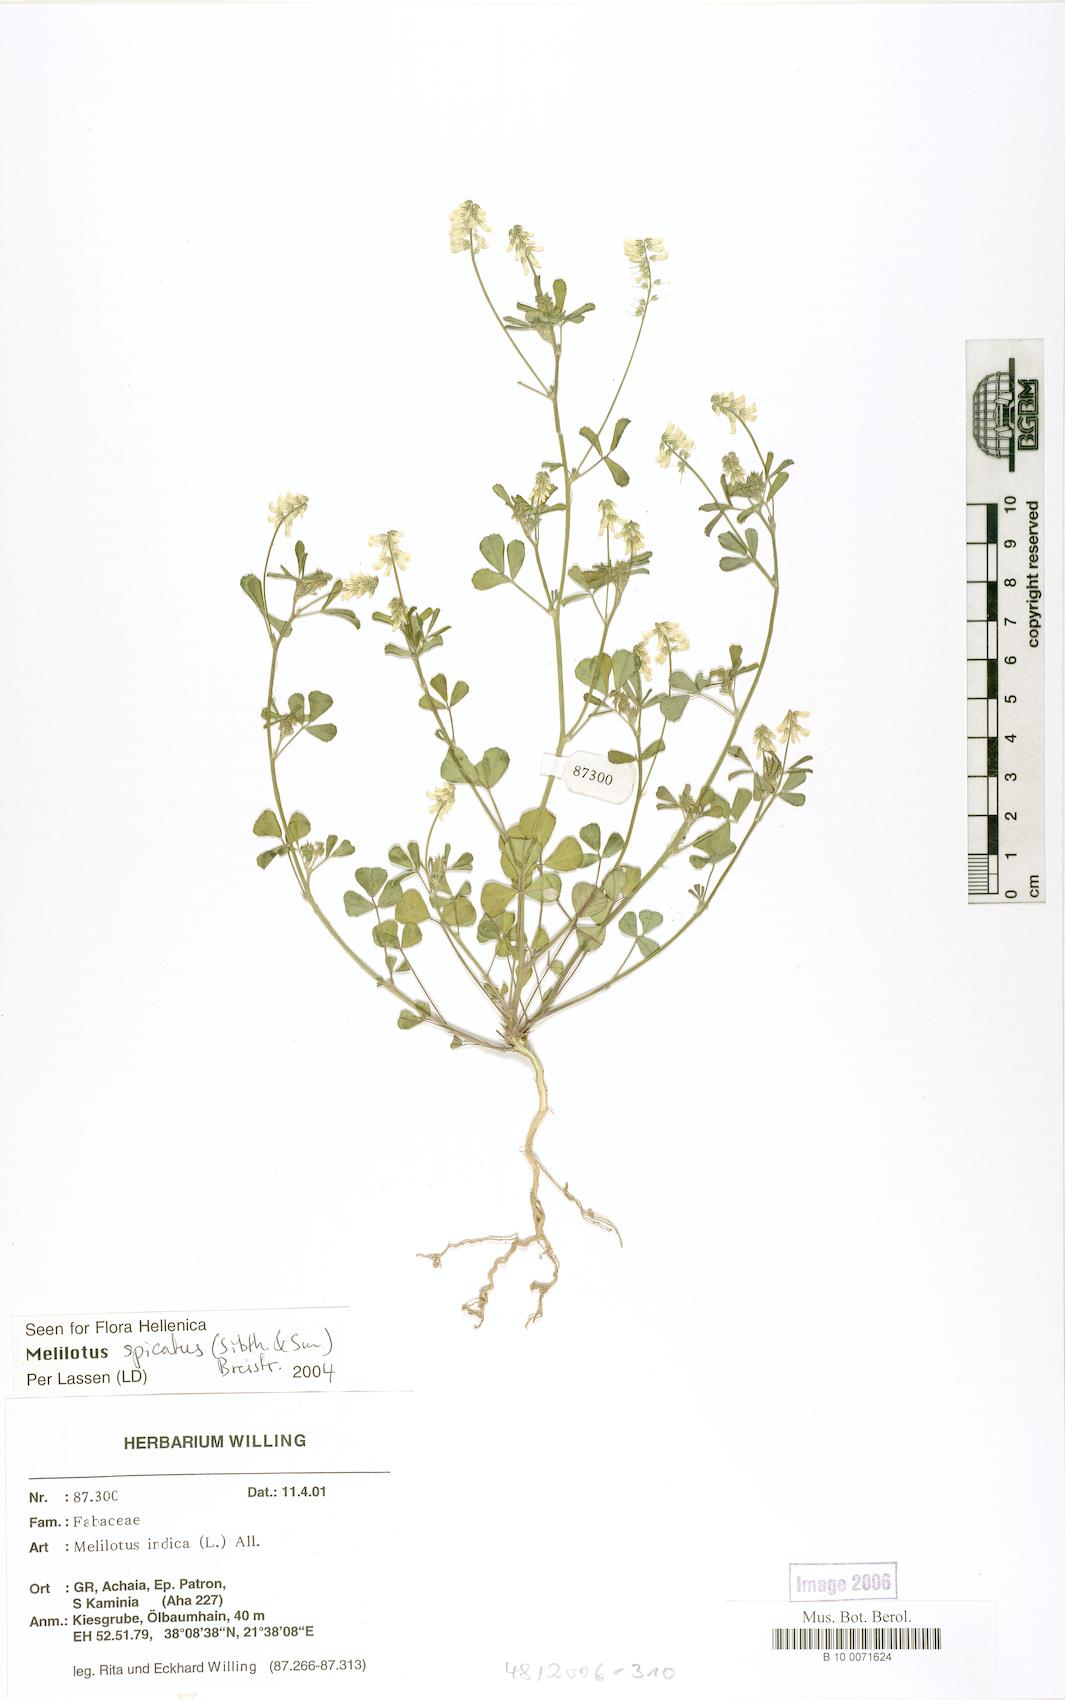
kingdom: Plantae
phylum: Tracheophyta
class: Magnoliopsida
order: Fabales
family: Fabaceae
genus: Melilotus
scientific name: Melilotus indicus
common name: Small melilot
